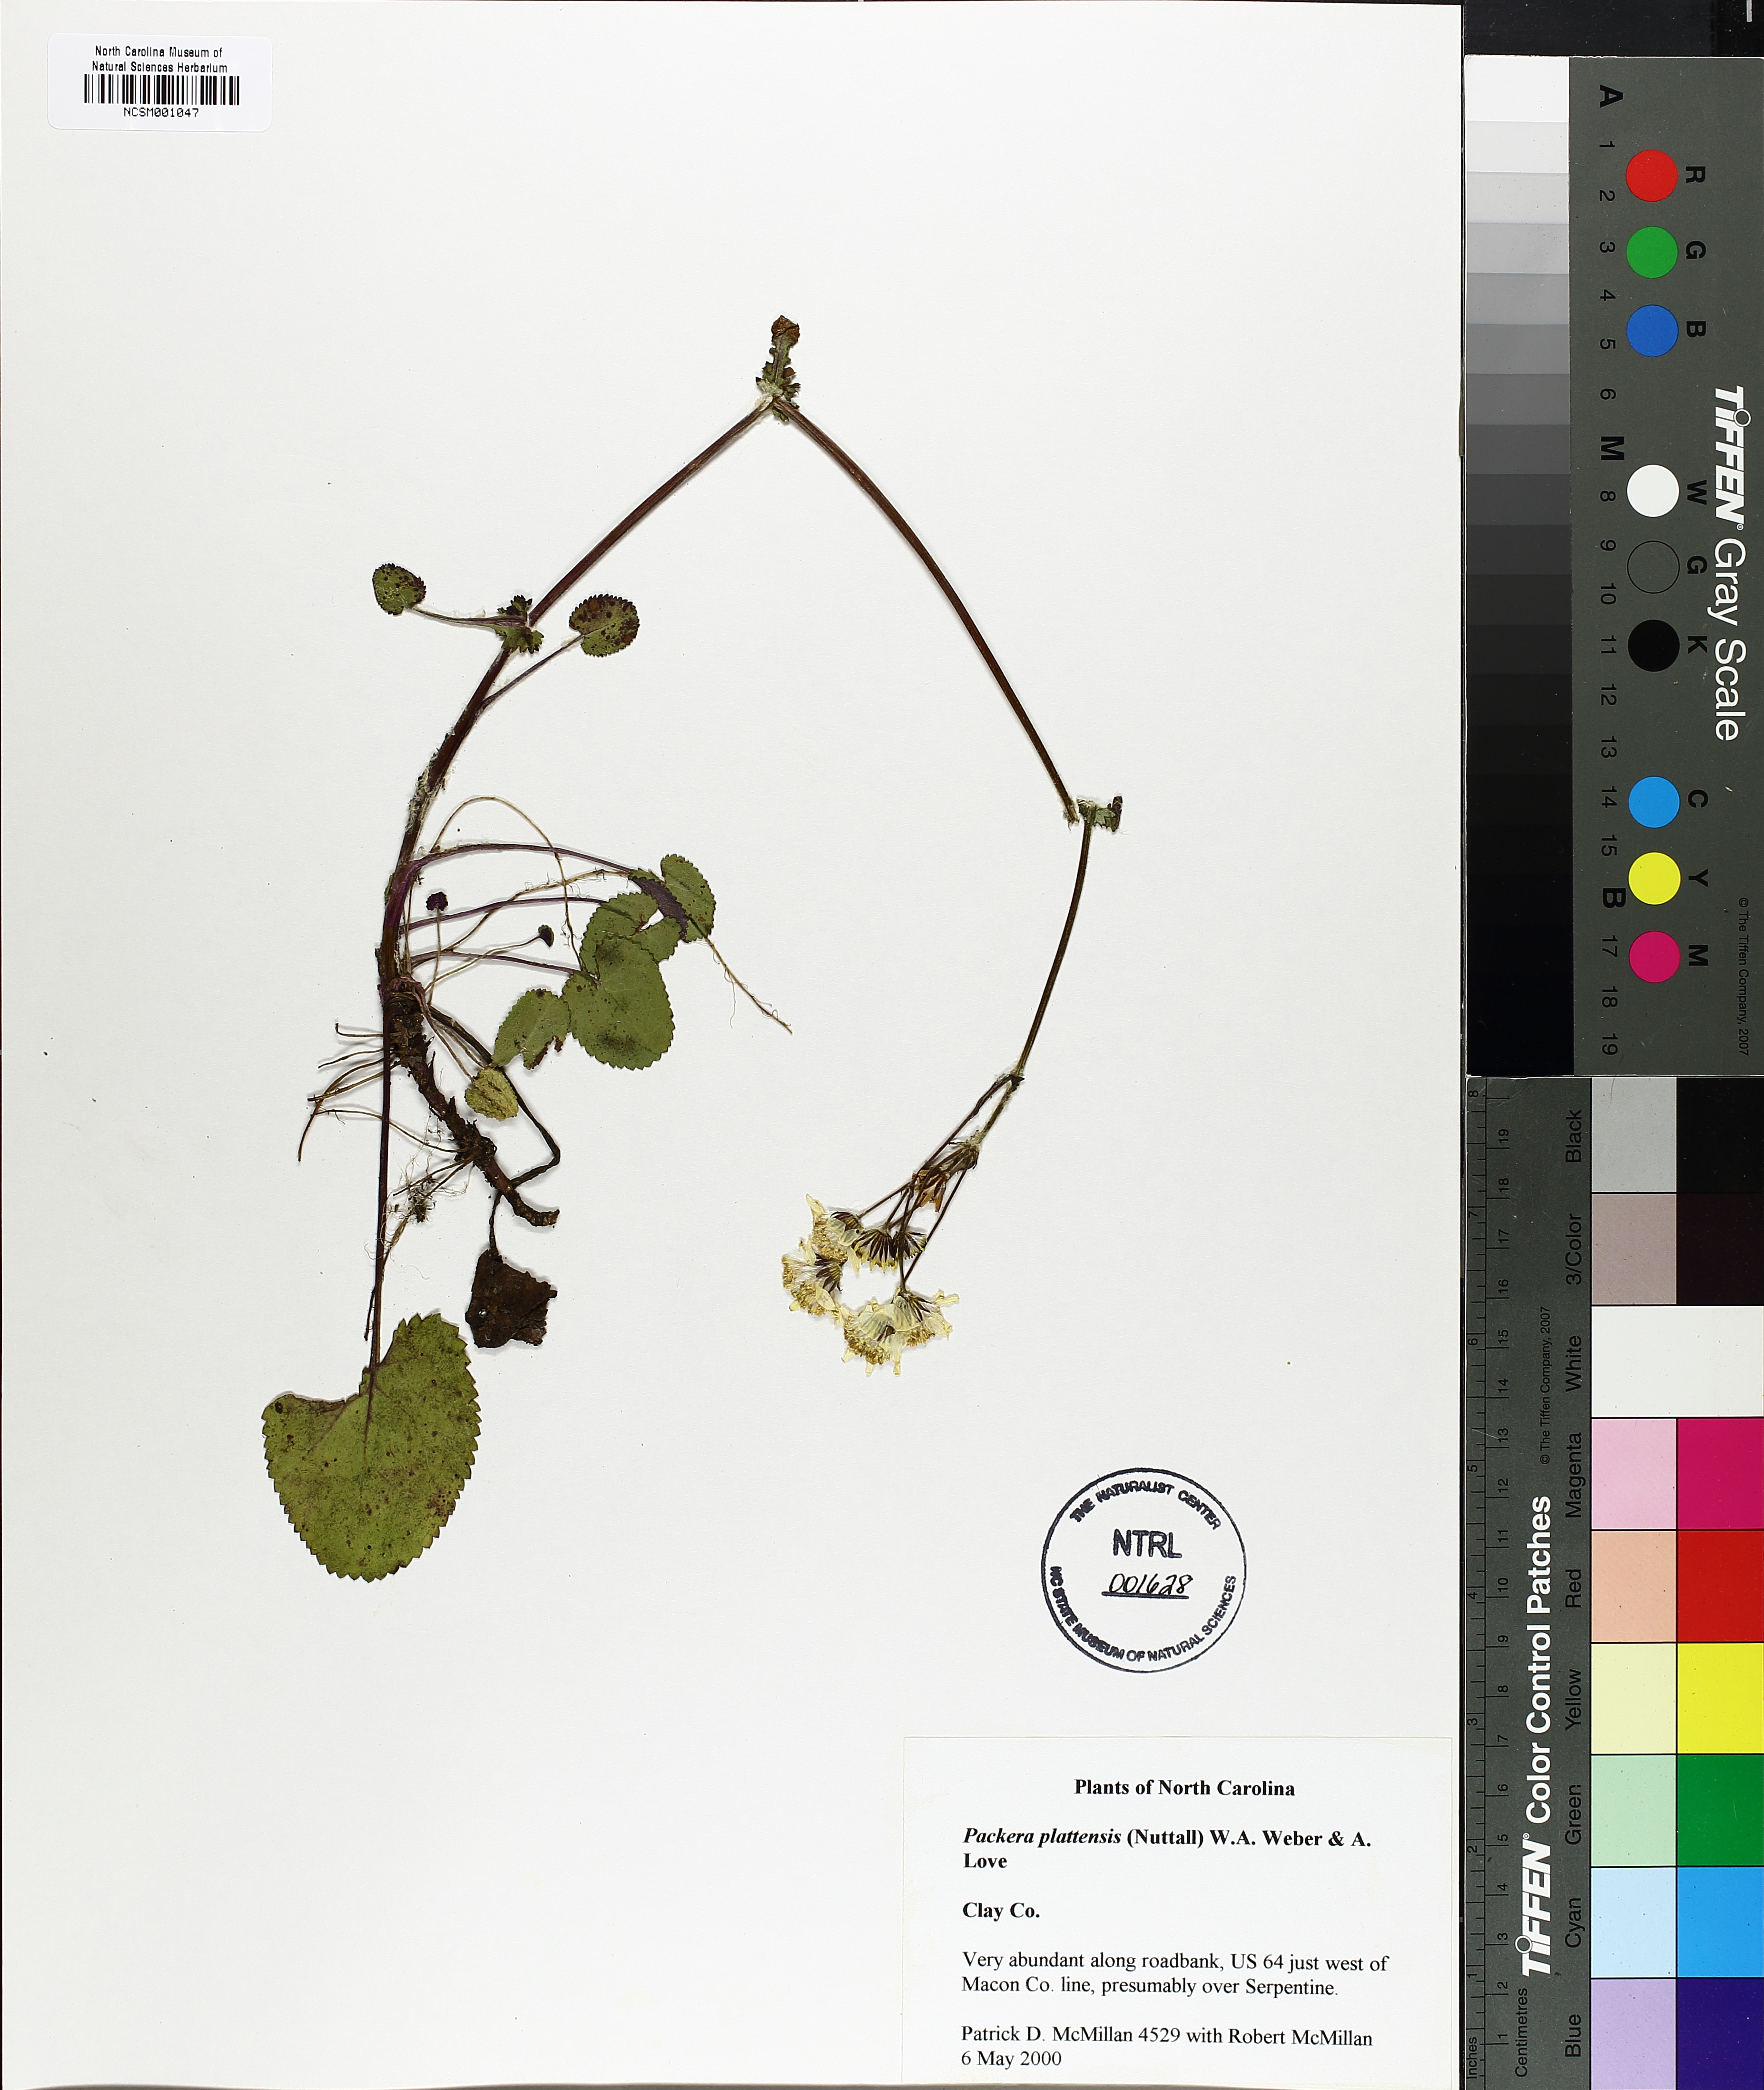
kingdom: Plantae
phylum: Tracheophyta
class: Magnoliopsida
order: Asterales
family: Asteraceae
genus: Packera
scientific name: Packera plattensis
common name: Prairie groundsel
